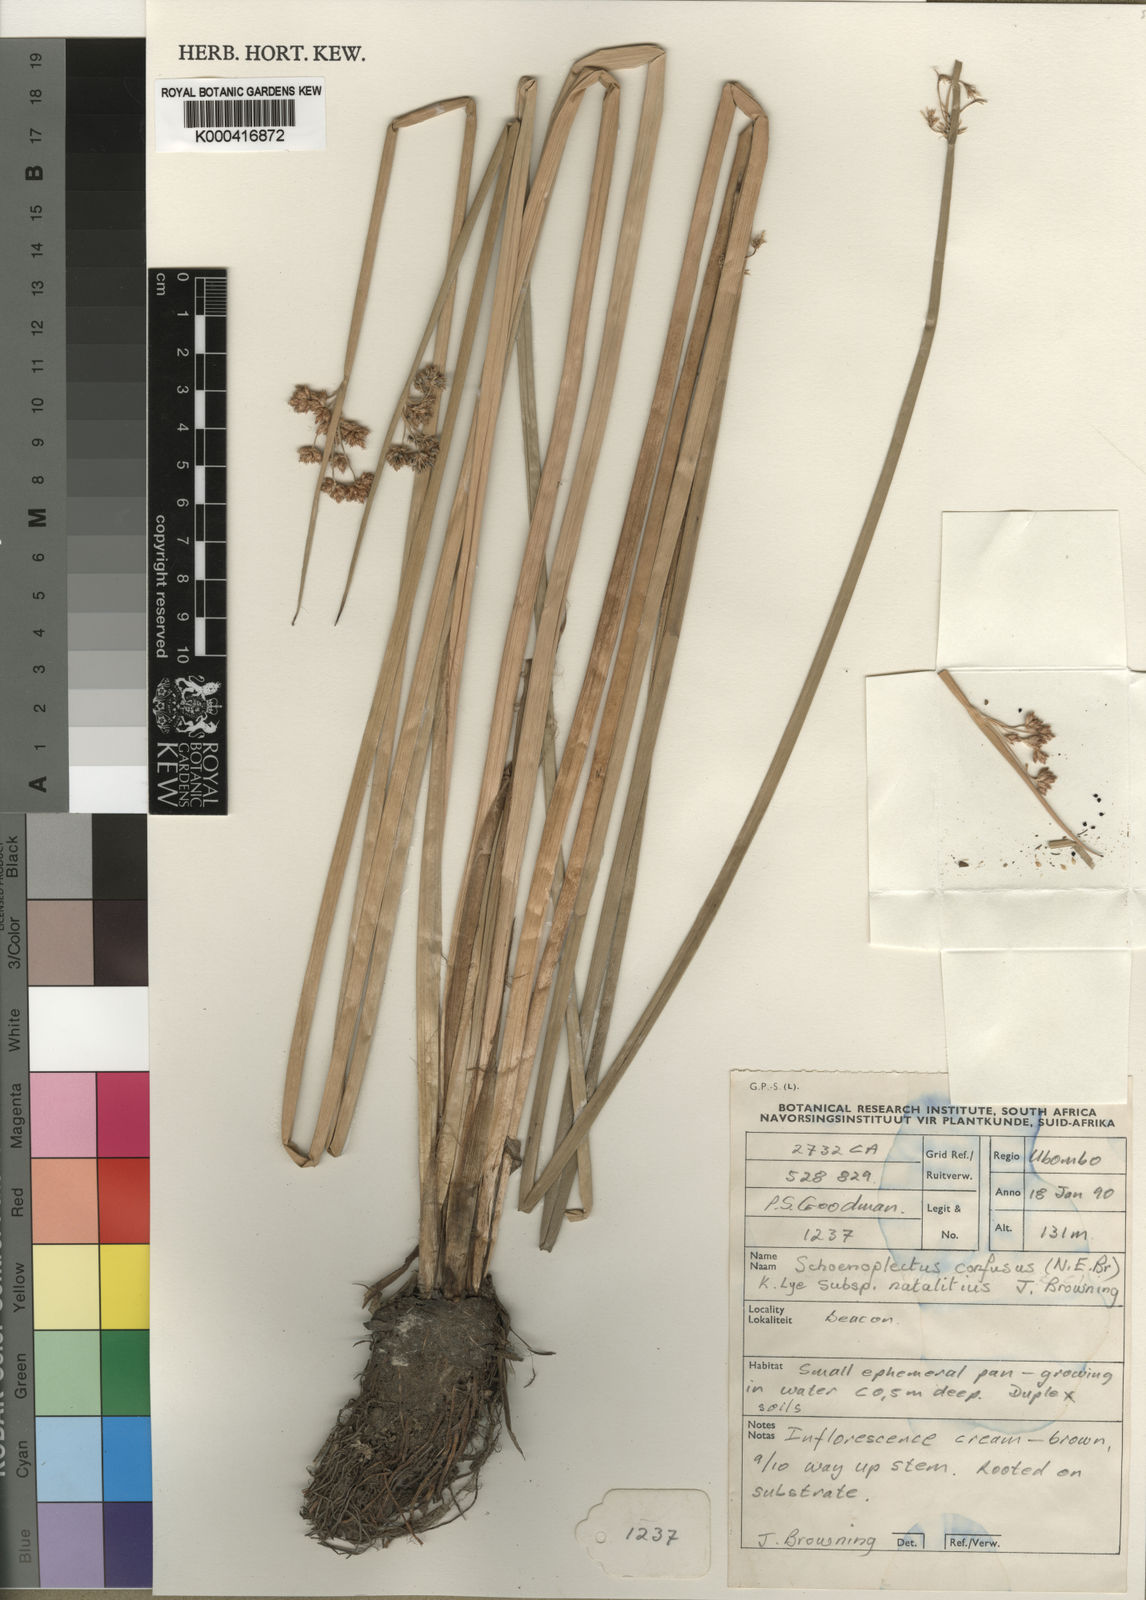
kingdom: Plantae
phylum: Tracheophyta
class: Liliopsida
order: Poales
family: Cyperaceae
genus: Schoenoplectiella
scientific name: Schoenoplectiella confusa
